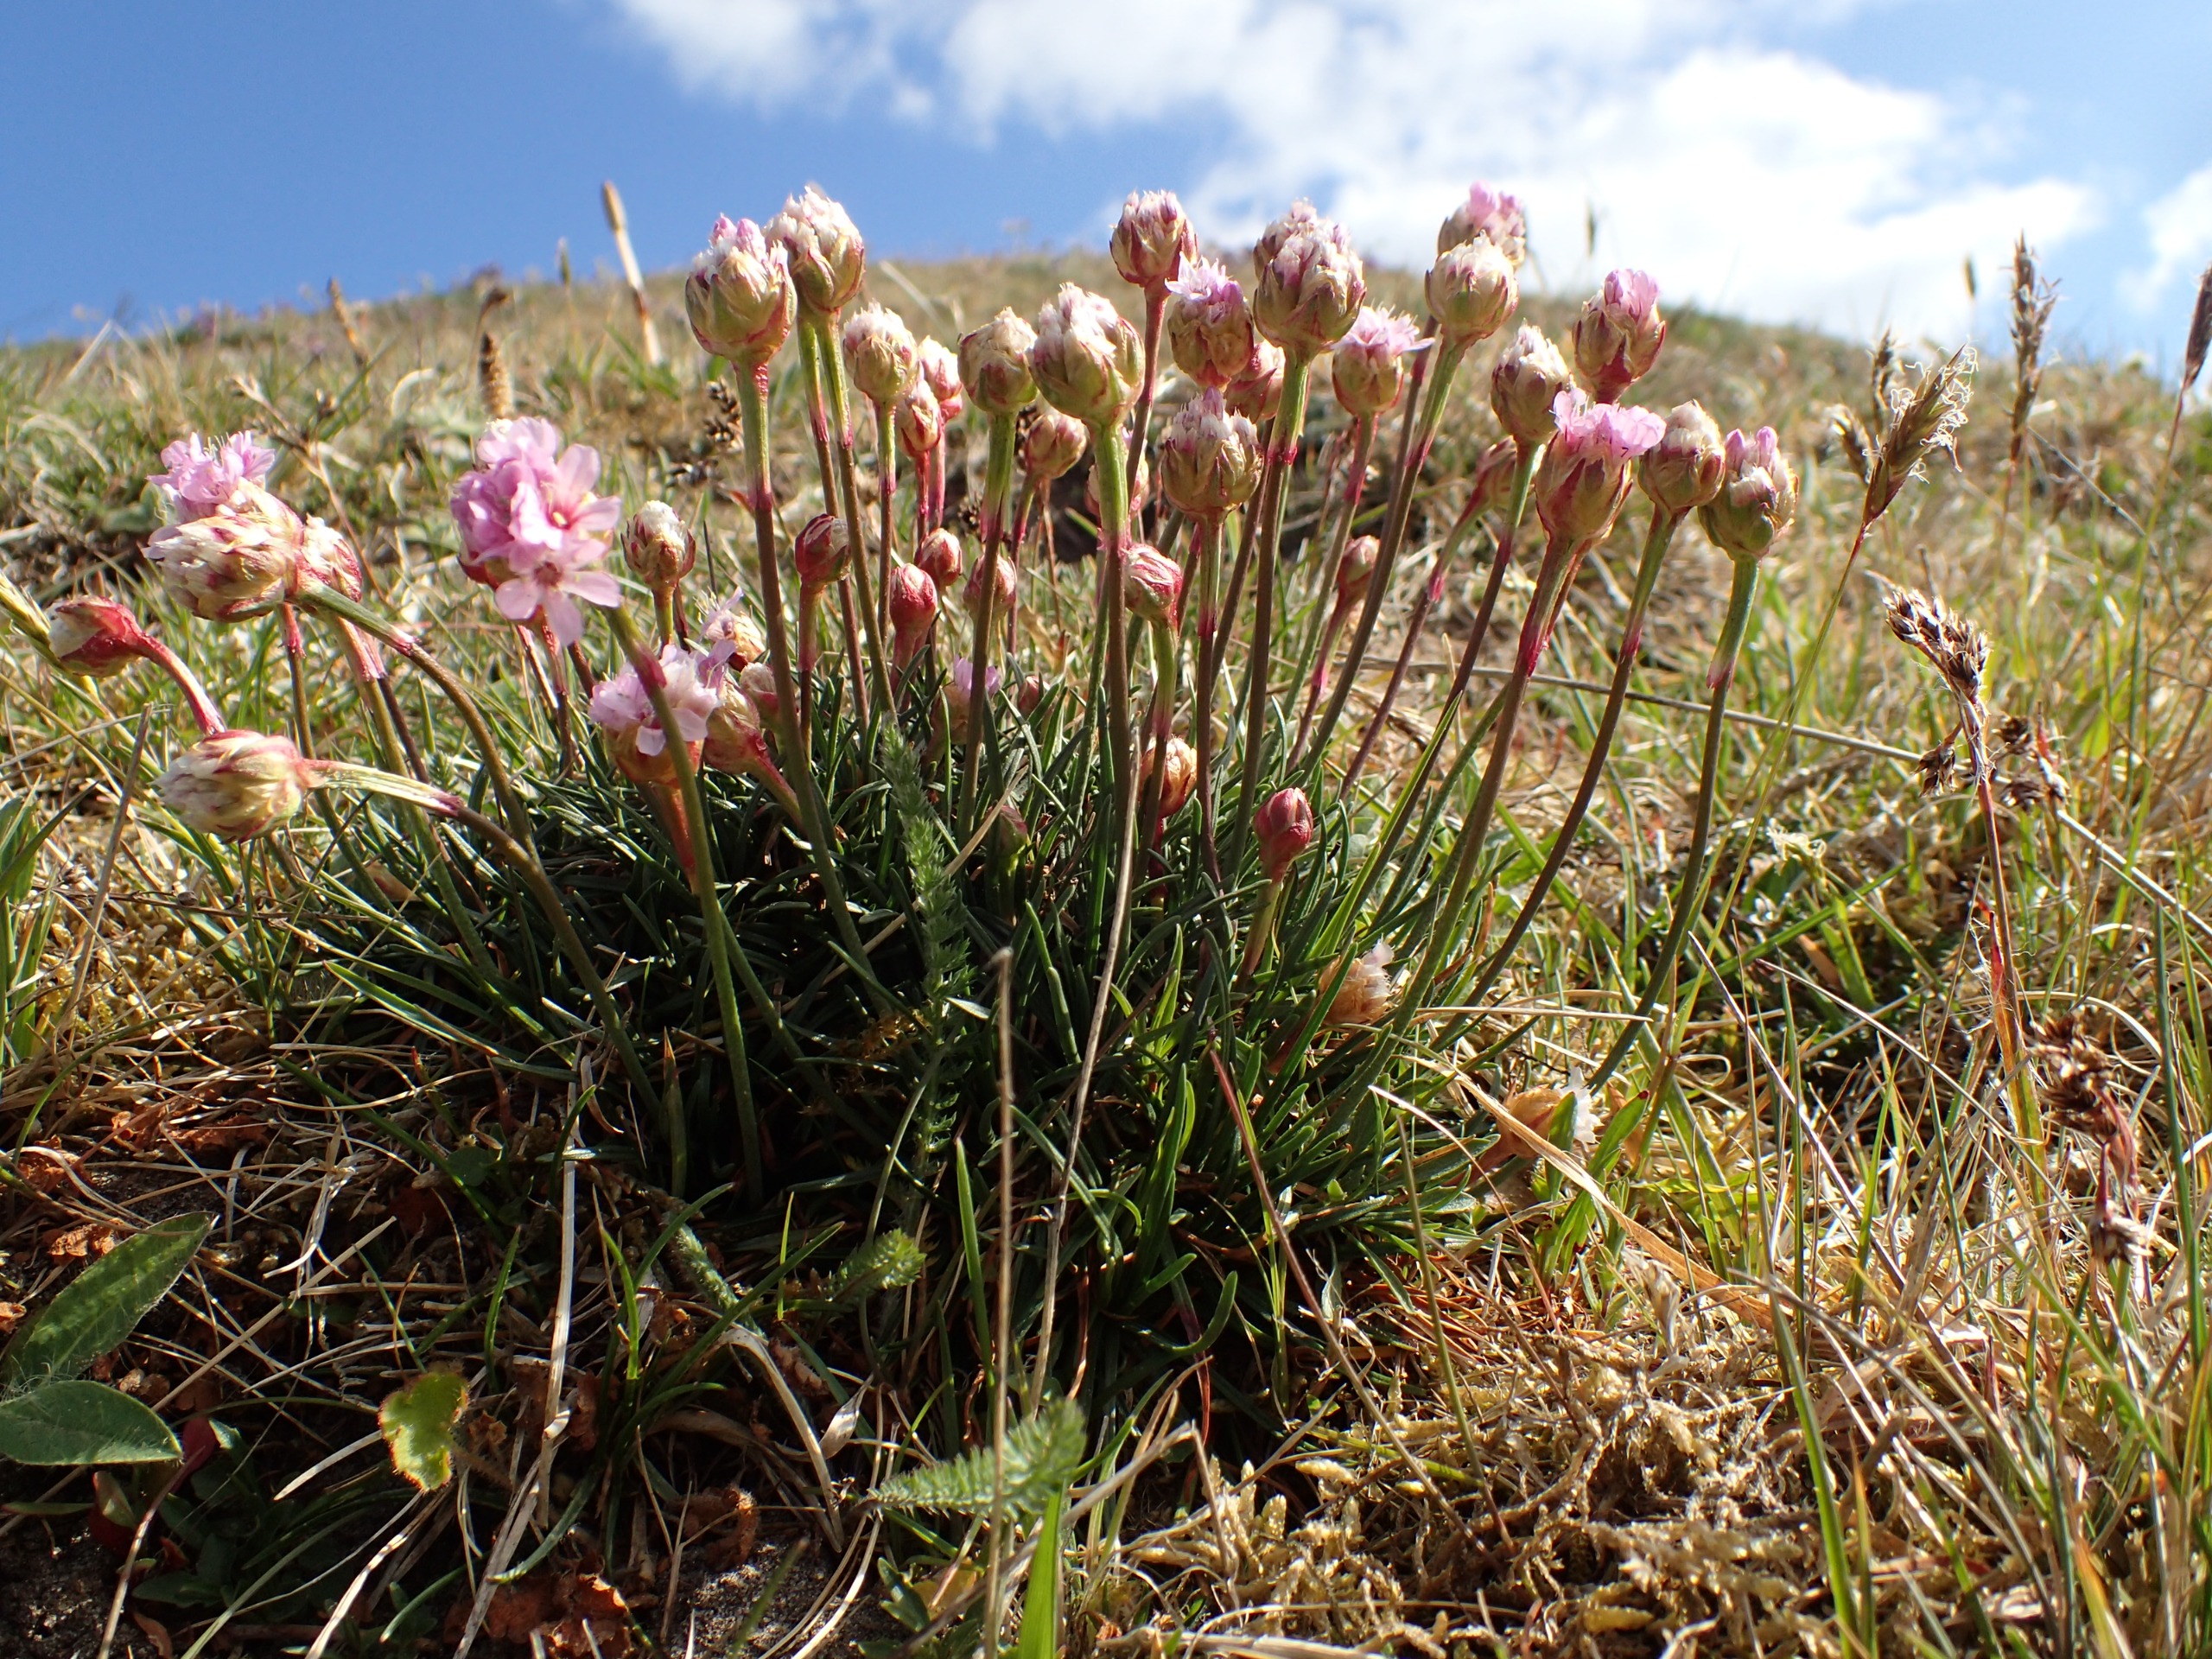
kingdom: Plantae
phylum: Tracheophyta
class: Magnoliopsida
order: Caryophyllales
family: Plumbaginaceae
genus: Armeria
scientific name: Armeria maritima
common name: Engelskgræs
